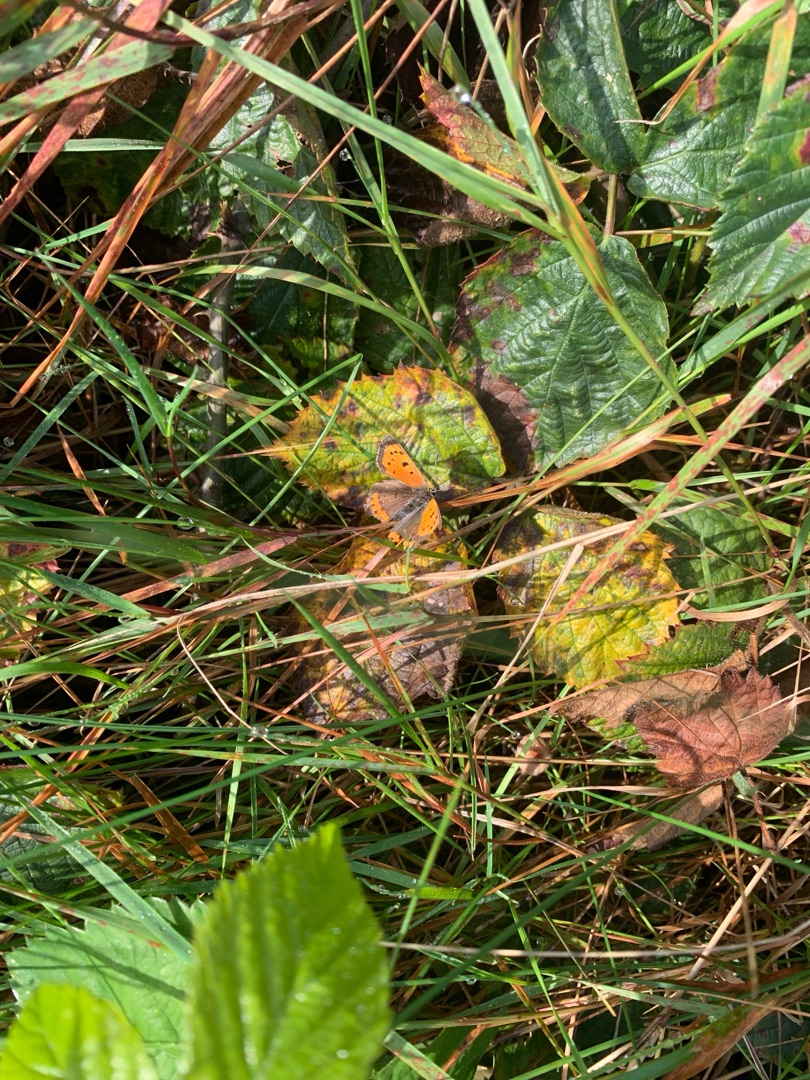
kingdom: Animalia
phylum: Arthropoda
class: Insecta
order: Lepidoptera
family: Lycaenidae
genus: Lycaena
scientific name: Lycaena phlaeas
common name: Lille ildfugl
